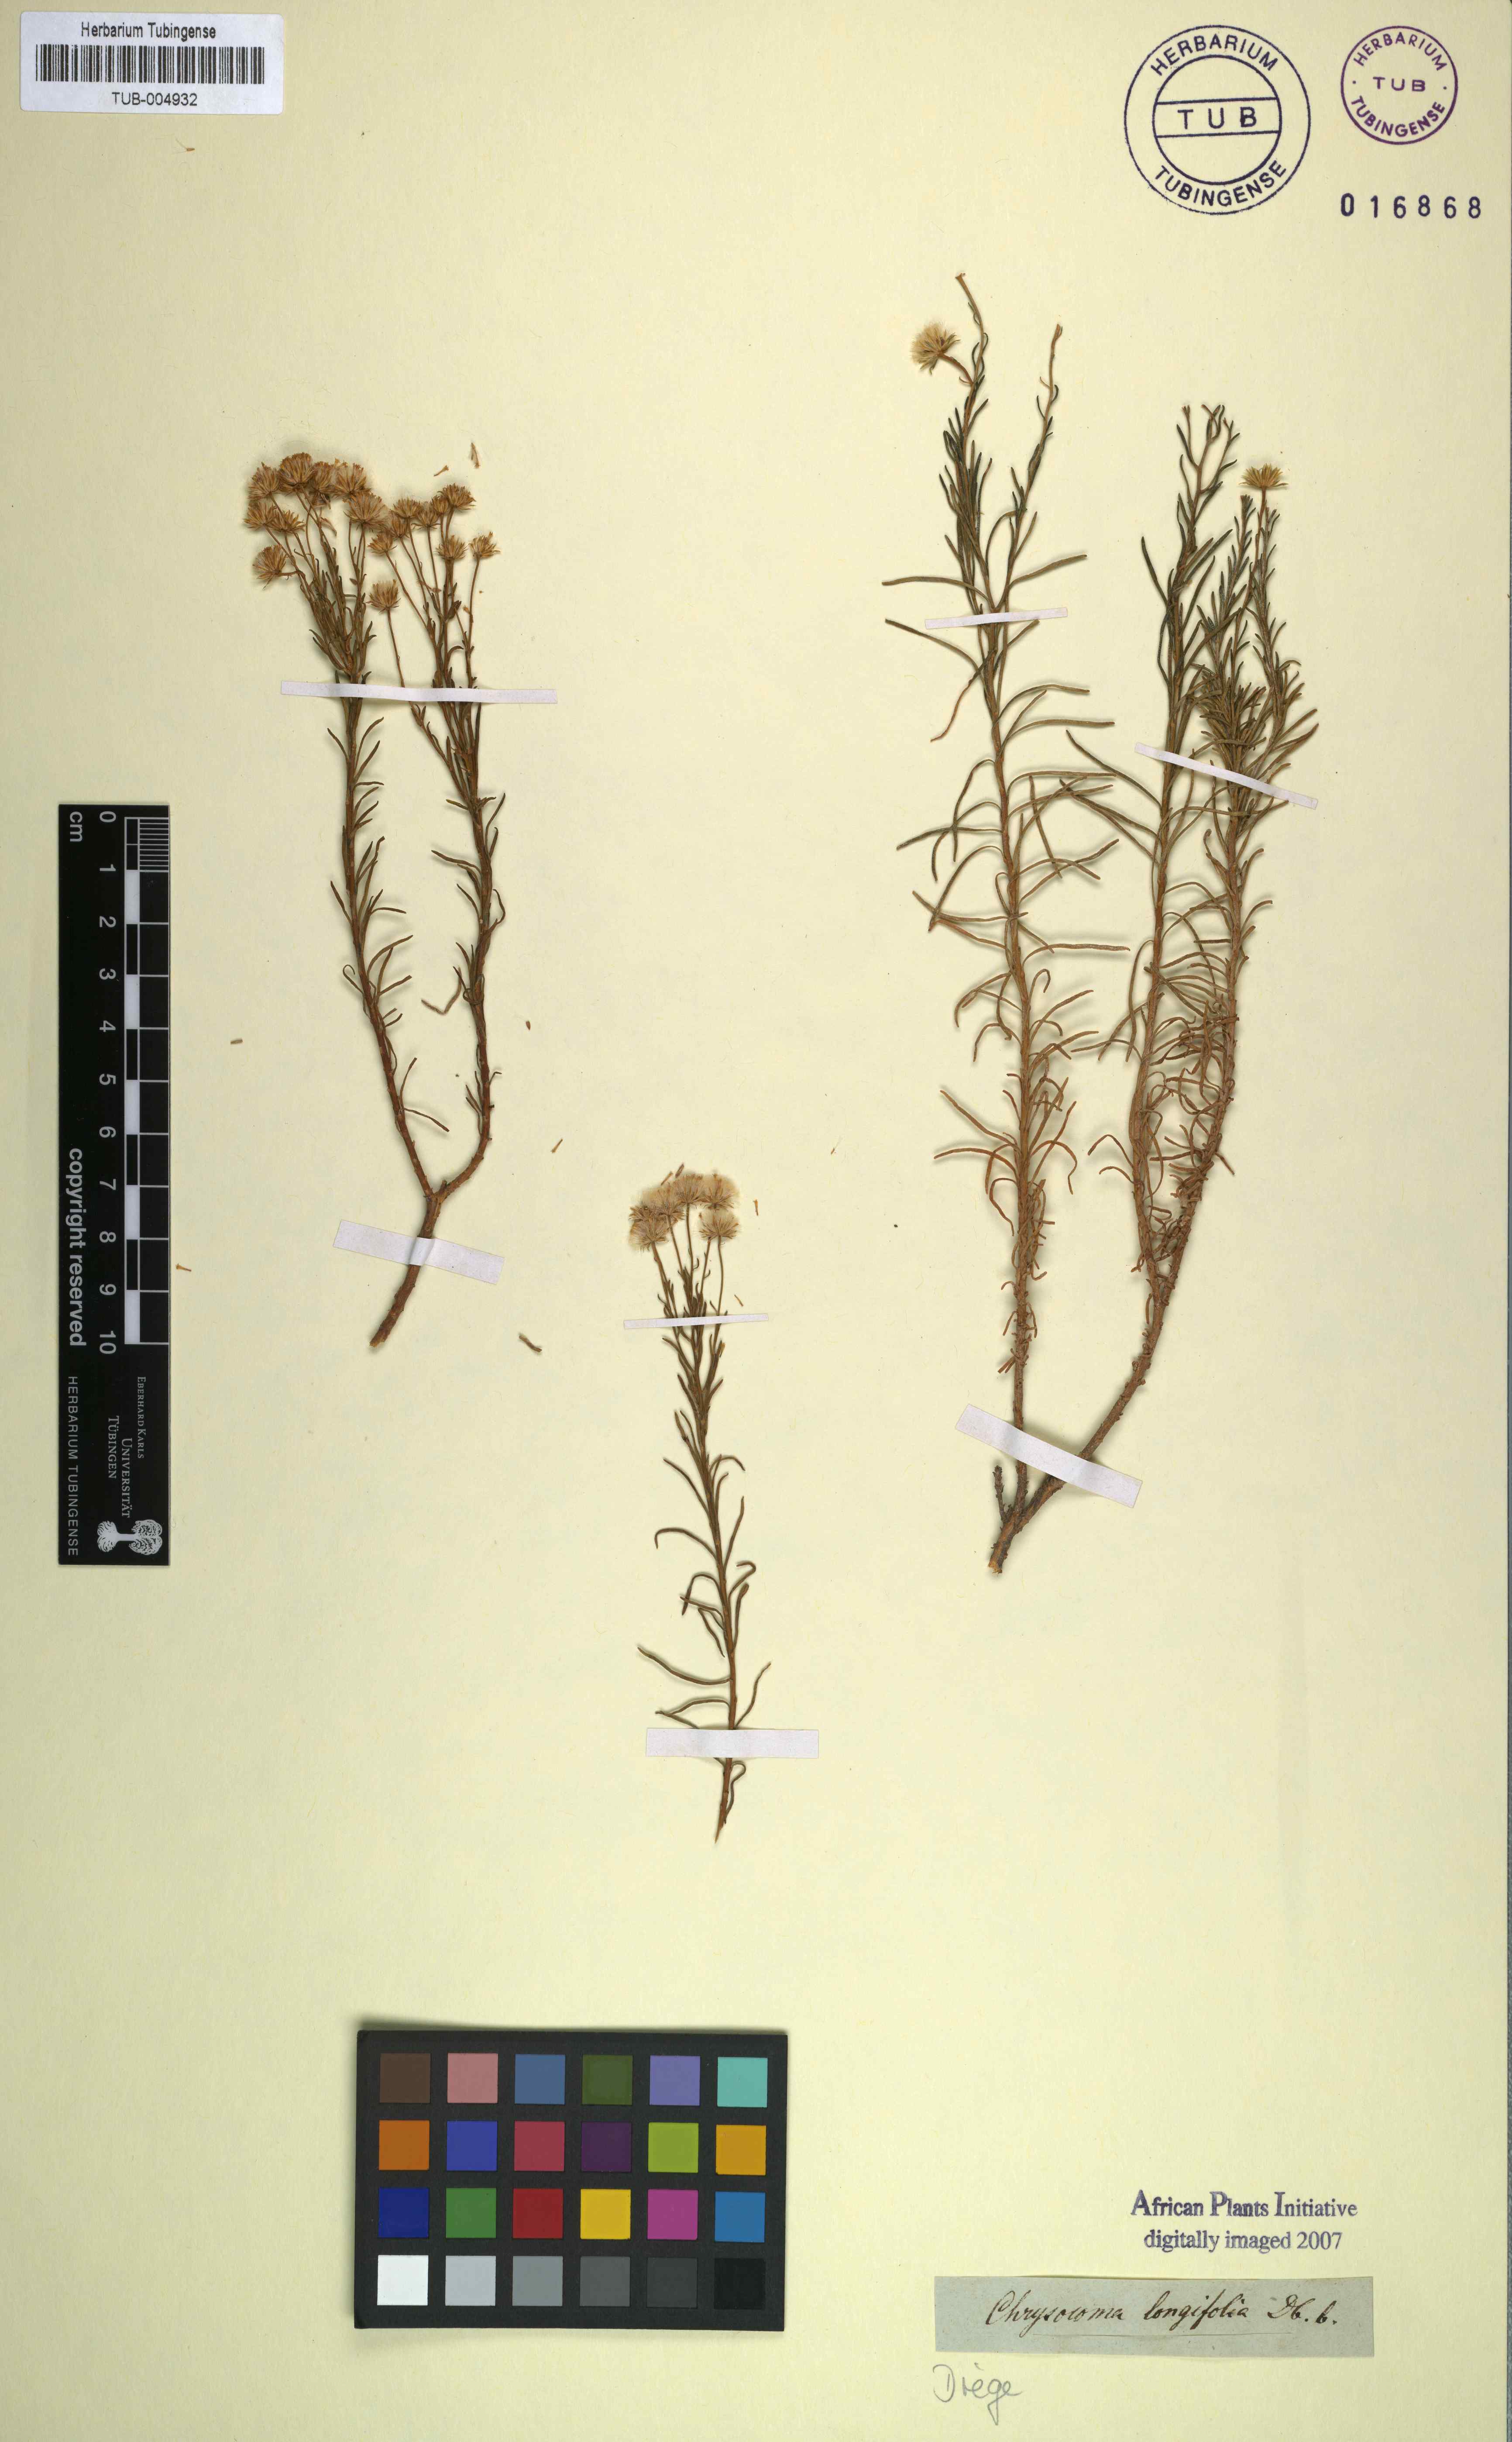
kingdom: Plantae
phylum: Tracheophyta
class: Magnoliopsida
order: Asterales
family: Asteraceae
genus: Chrysocoma
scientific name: Chrysocoma longifolia
